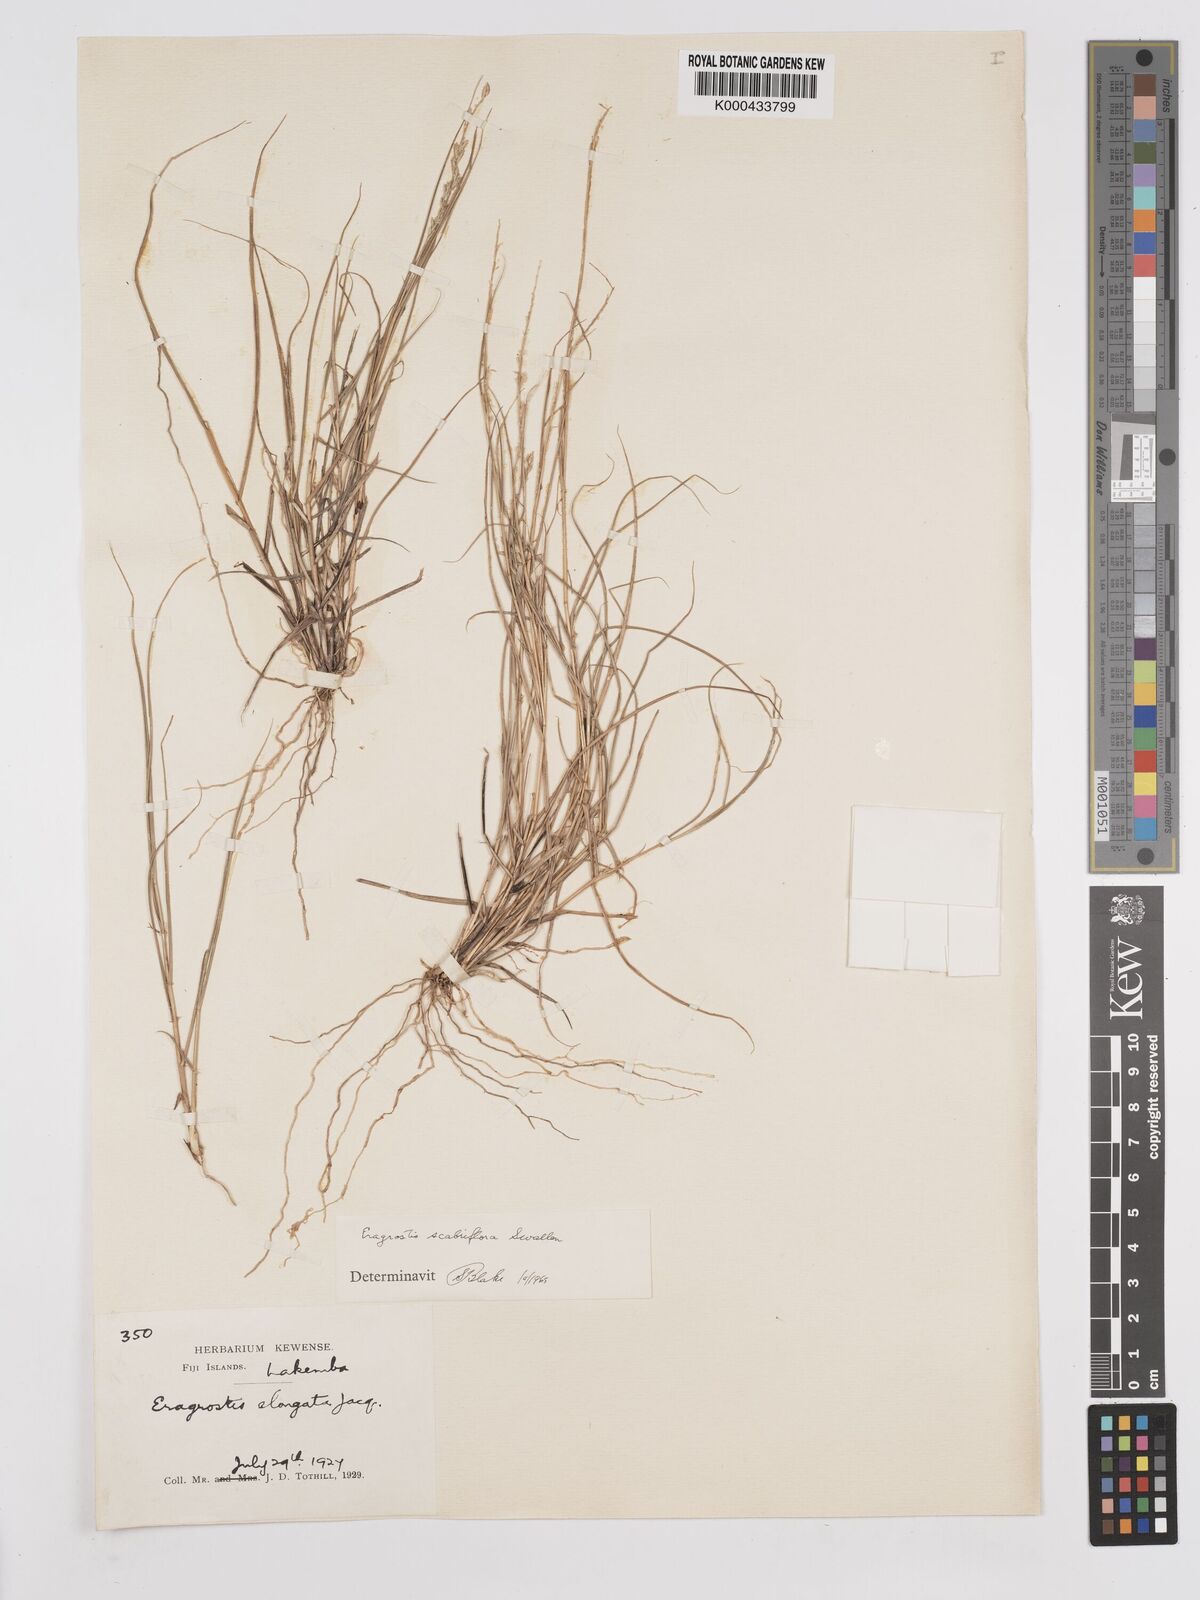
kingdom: Plantae
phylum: Tracheophyta
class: Liliopsida
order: Poales
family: Poaceae
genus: Eragrostis
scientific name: Eragrostis scabriflora
